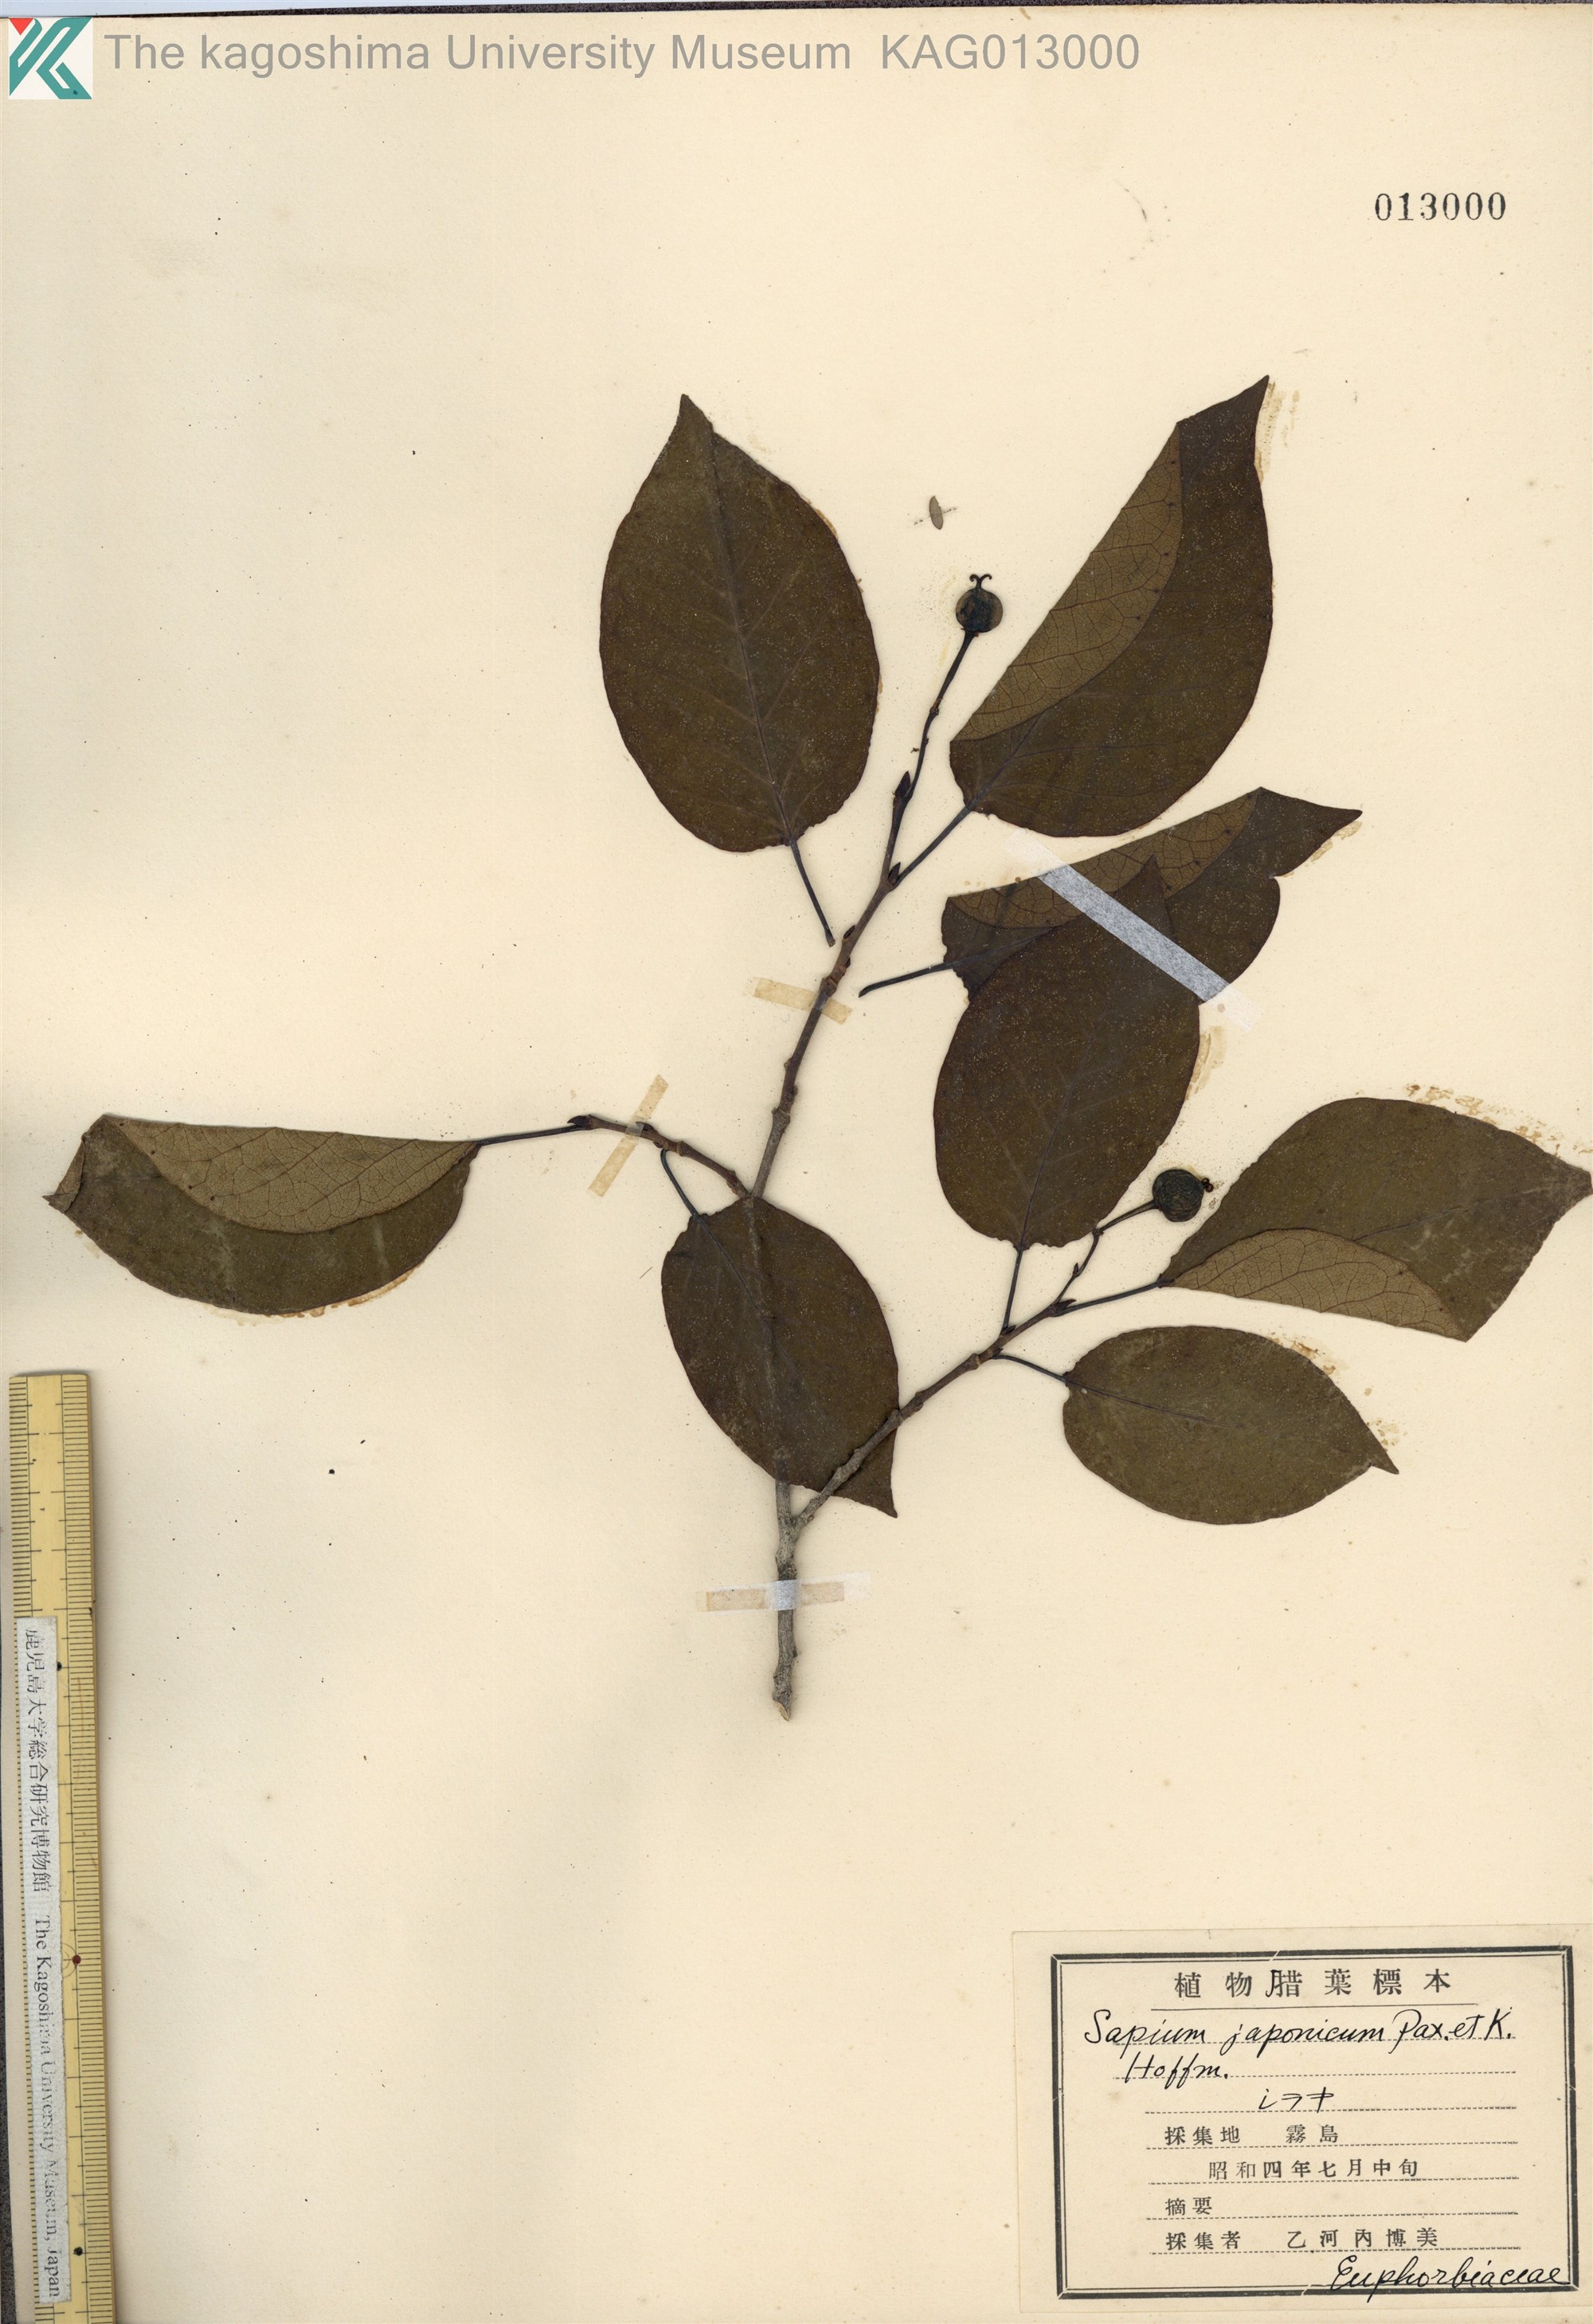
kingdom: Plantae
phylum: Tracheophyta
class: Magnoliopsida
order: Malpighiales
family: Euphorbiaceae
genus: Neoshirakia
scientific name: Neoshirakia japonica
